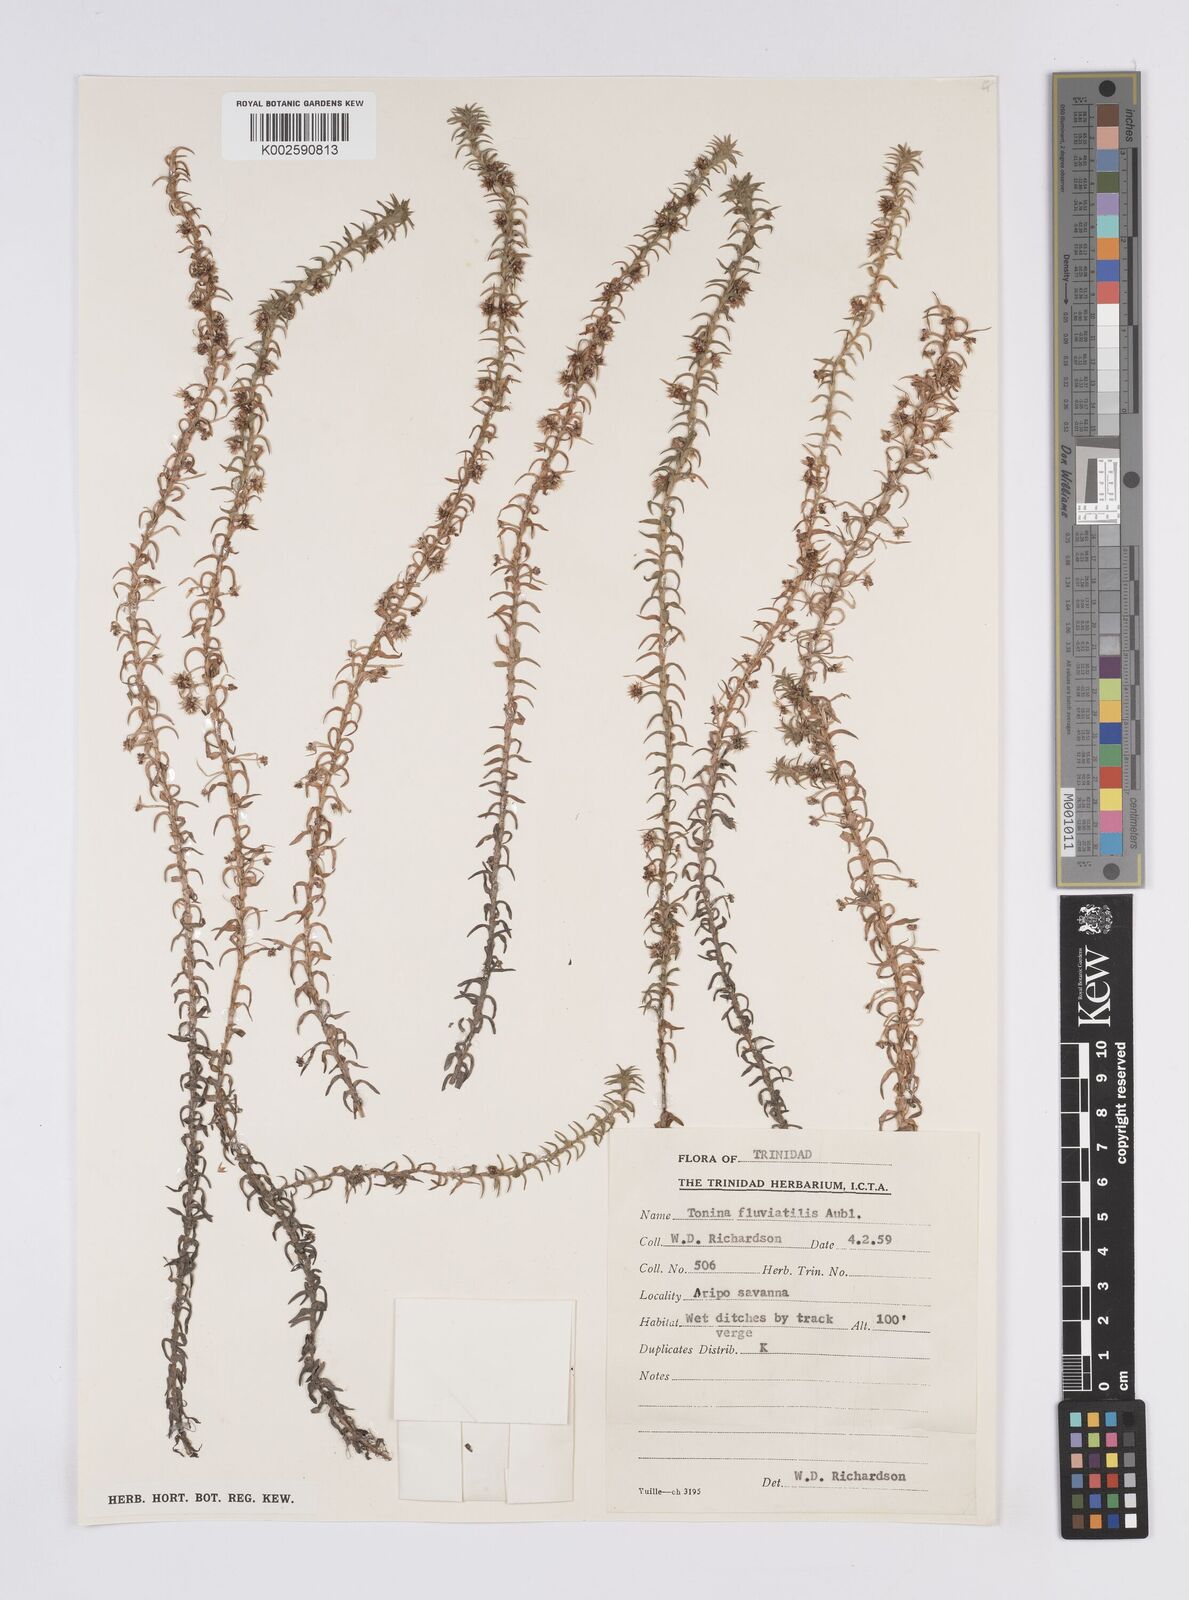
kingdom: Plantae
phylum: Tracheophyta
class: Liliopsida
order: Poales
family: Eriocaulaceae
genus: Paepalanthus
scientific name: Paepalanthus fluviatilis
